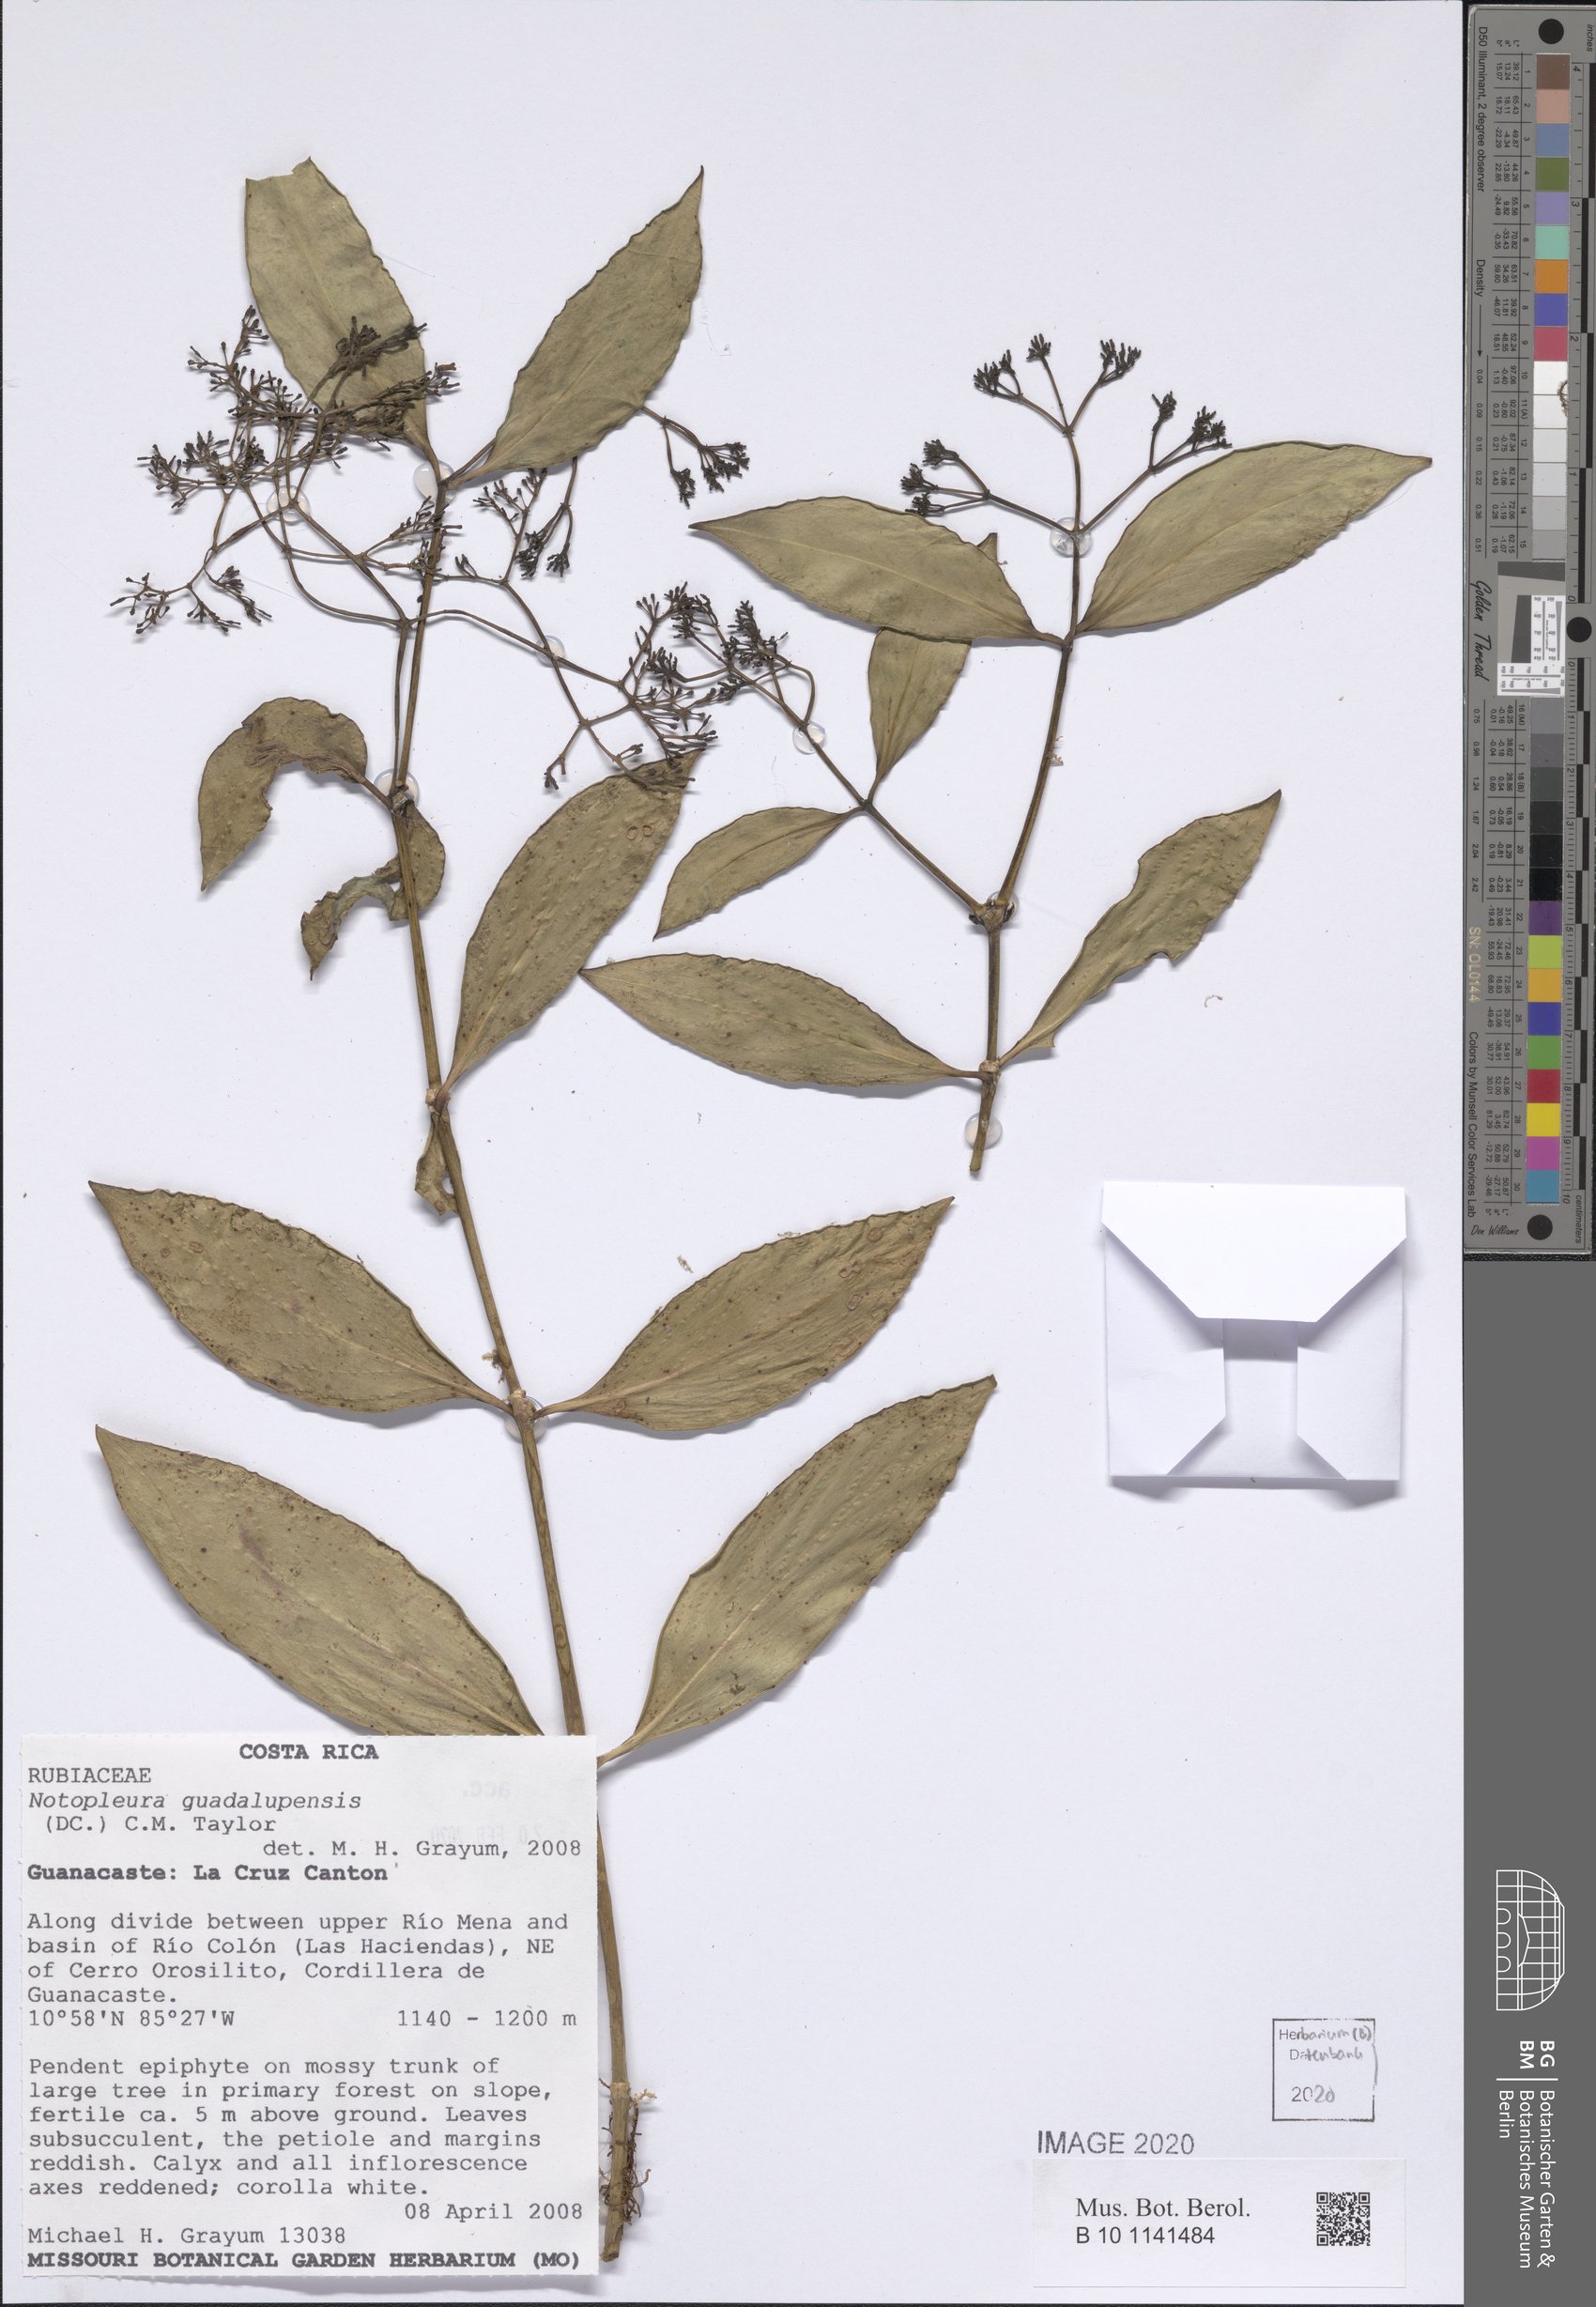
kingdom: Plantae
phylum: Tracheophyta
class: Magnoliopsida
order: Gentianales
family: Rubiaceae
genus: Notopleura
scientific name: Notopleura parasitica
